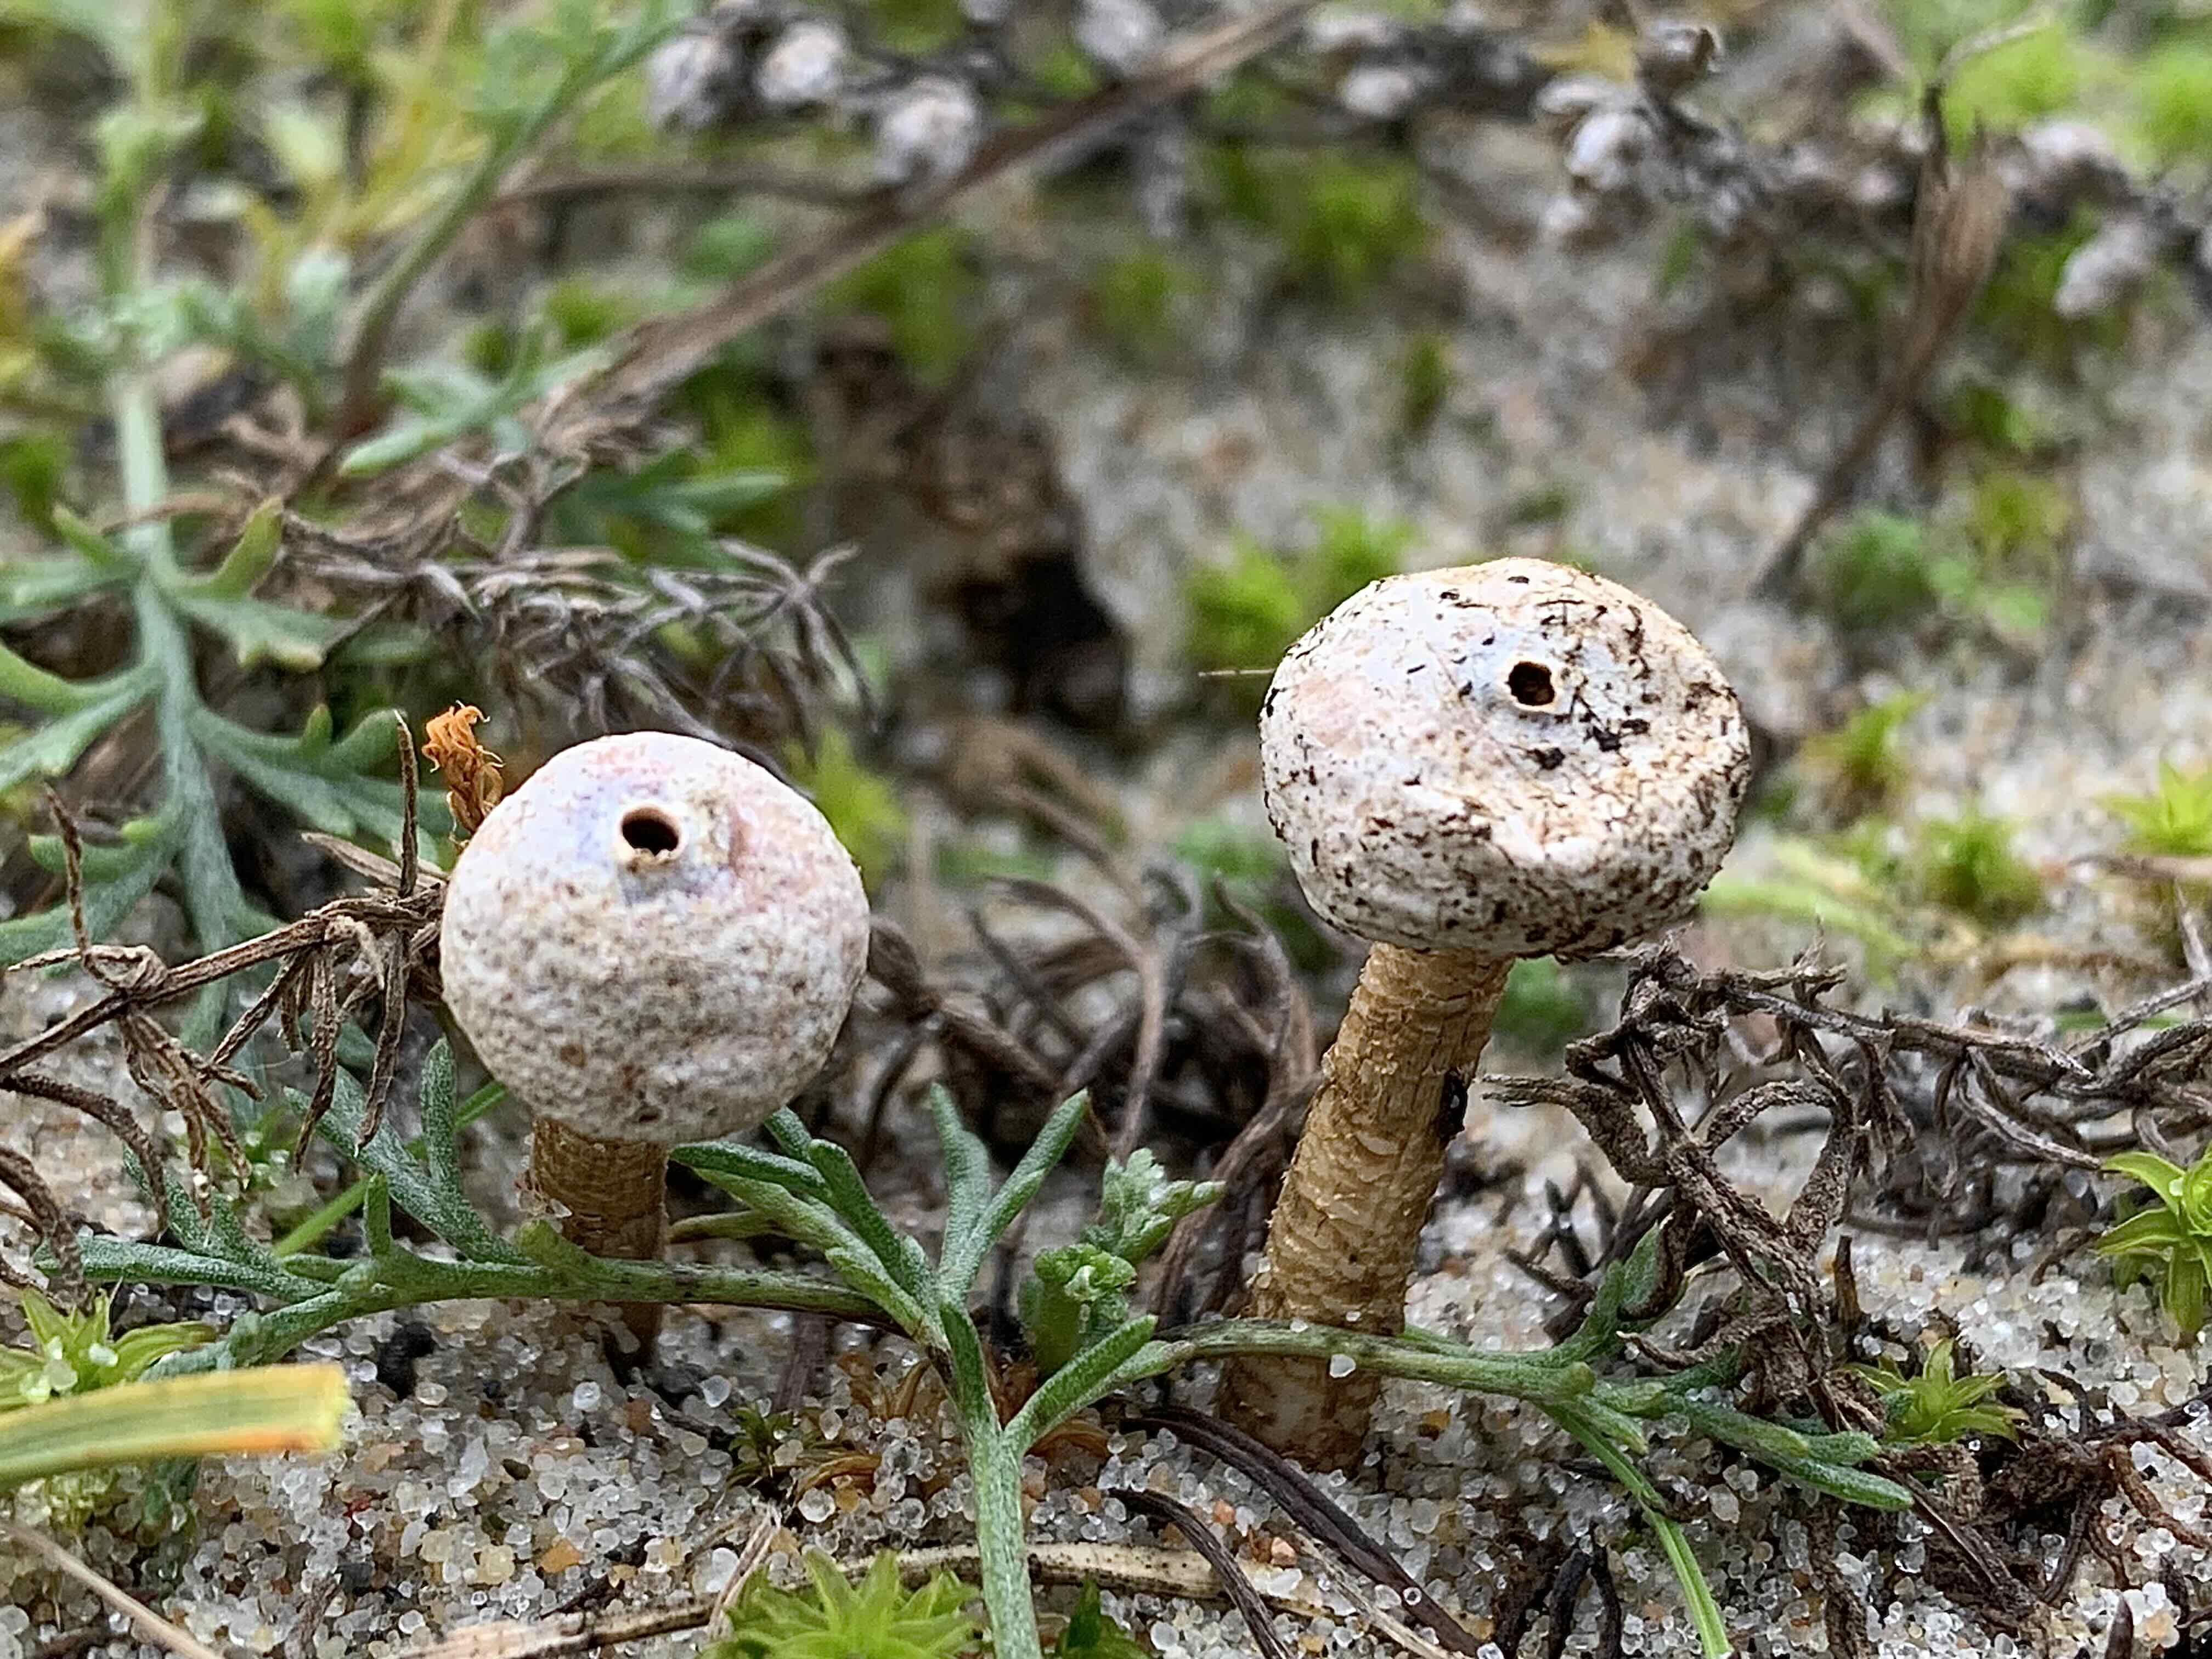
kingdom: Fungi
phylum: Basidiomycota
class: Agaricomycetes
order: Agaricales
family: Agaricaceae
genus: Tulostoma
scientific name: Tulostoma brumale
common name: vinter-stilkbovist
